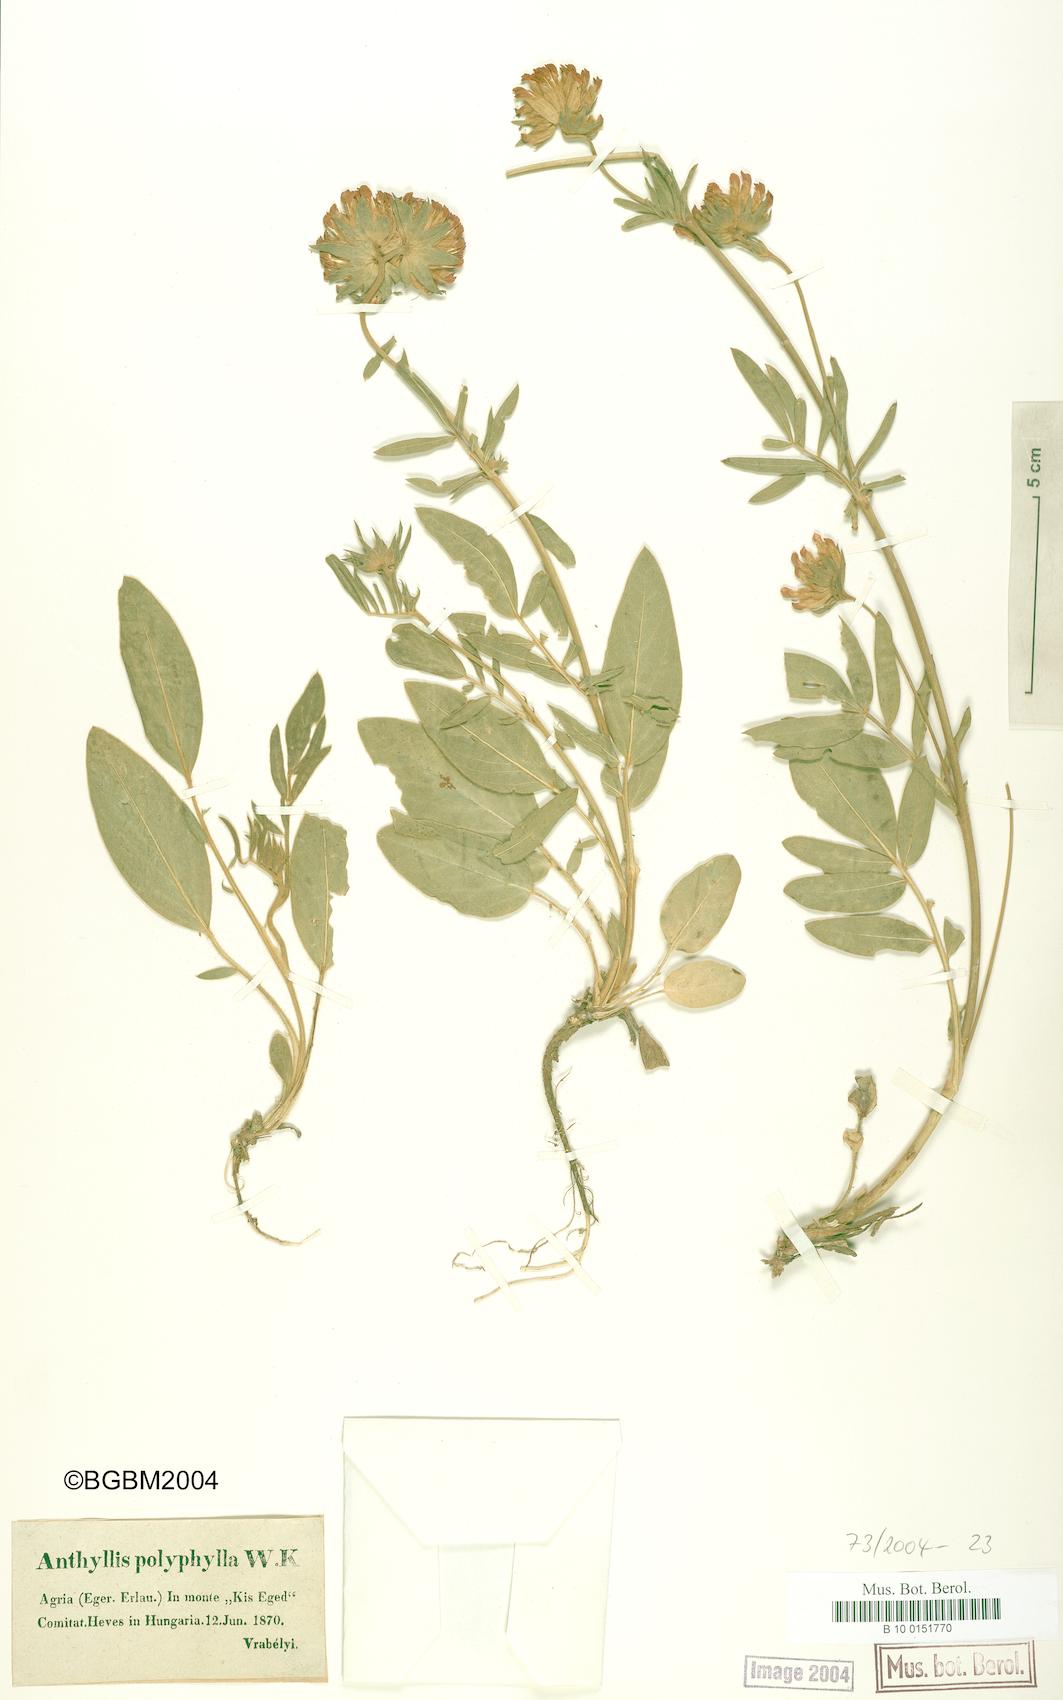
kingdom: Plantae
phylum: Tracheophyta
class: Magnoliopsida
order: Fabales
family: Fabaceae
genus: Anthyllis
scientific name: Anthyllis vulneraria
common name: Kidney vetch
